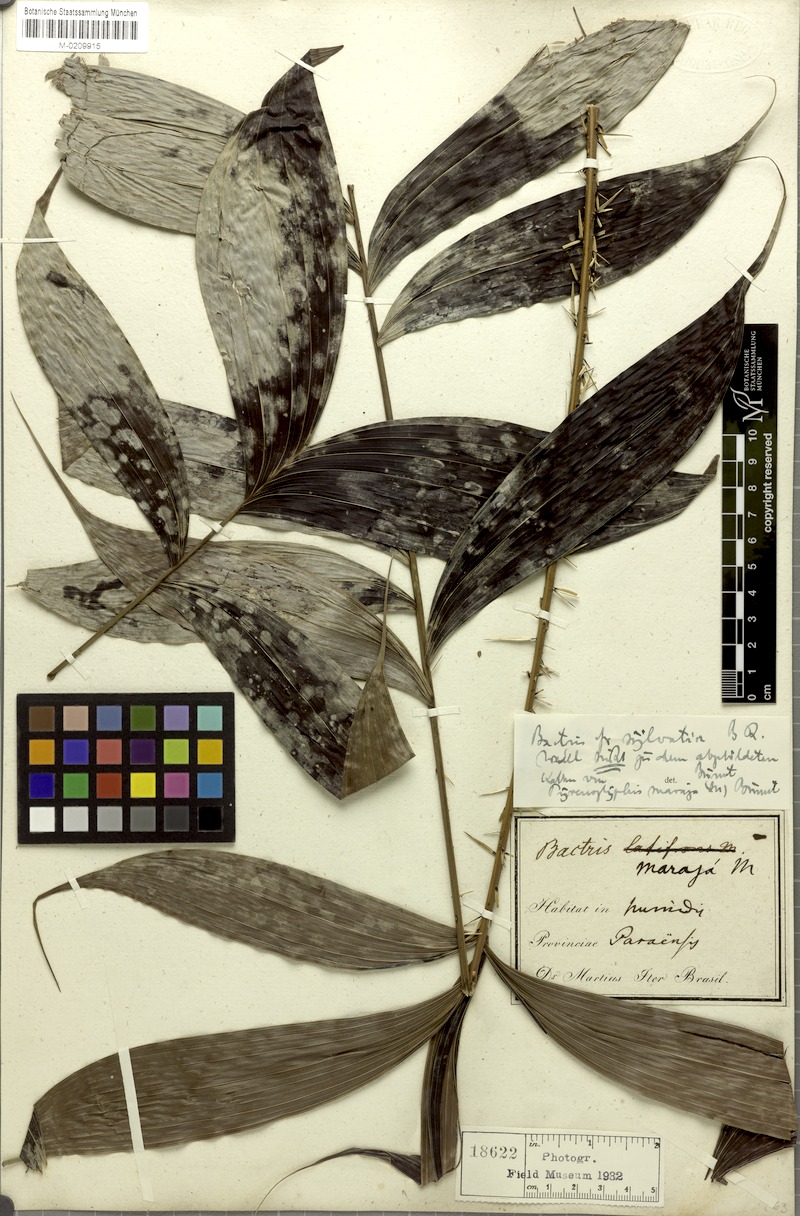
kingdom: Plantae
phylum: Tracheophyta
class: Liliopsida
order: Arecales
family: Arecaceae
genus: Bactris
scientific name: Bactris maraja
